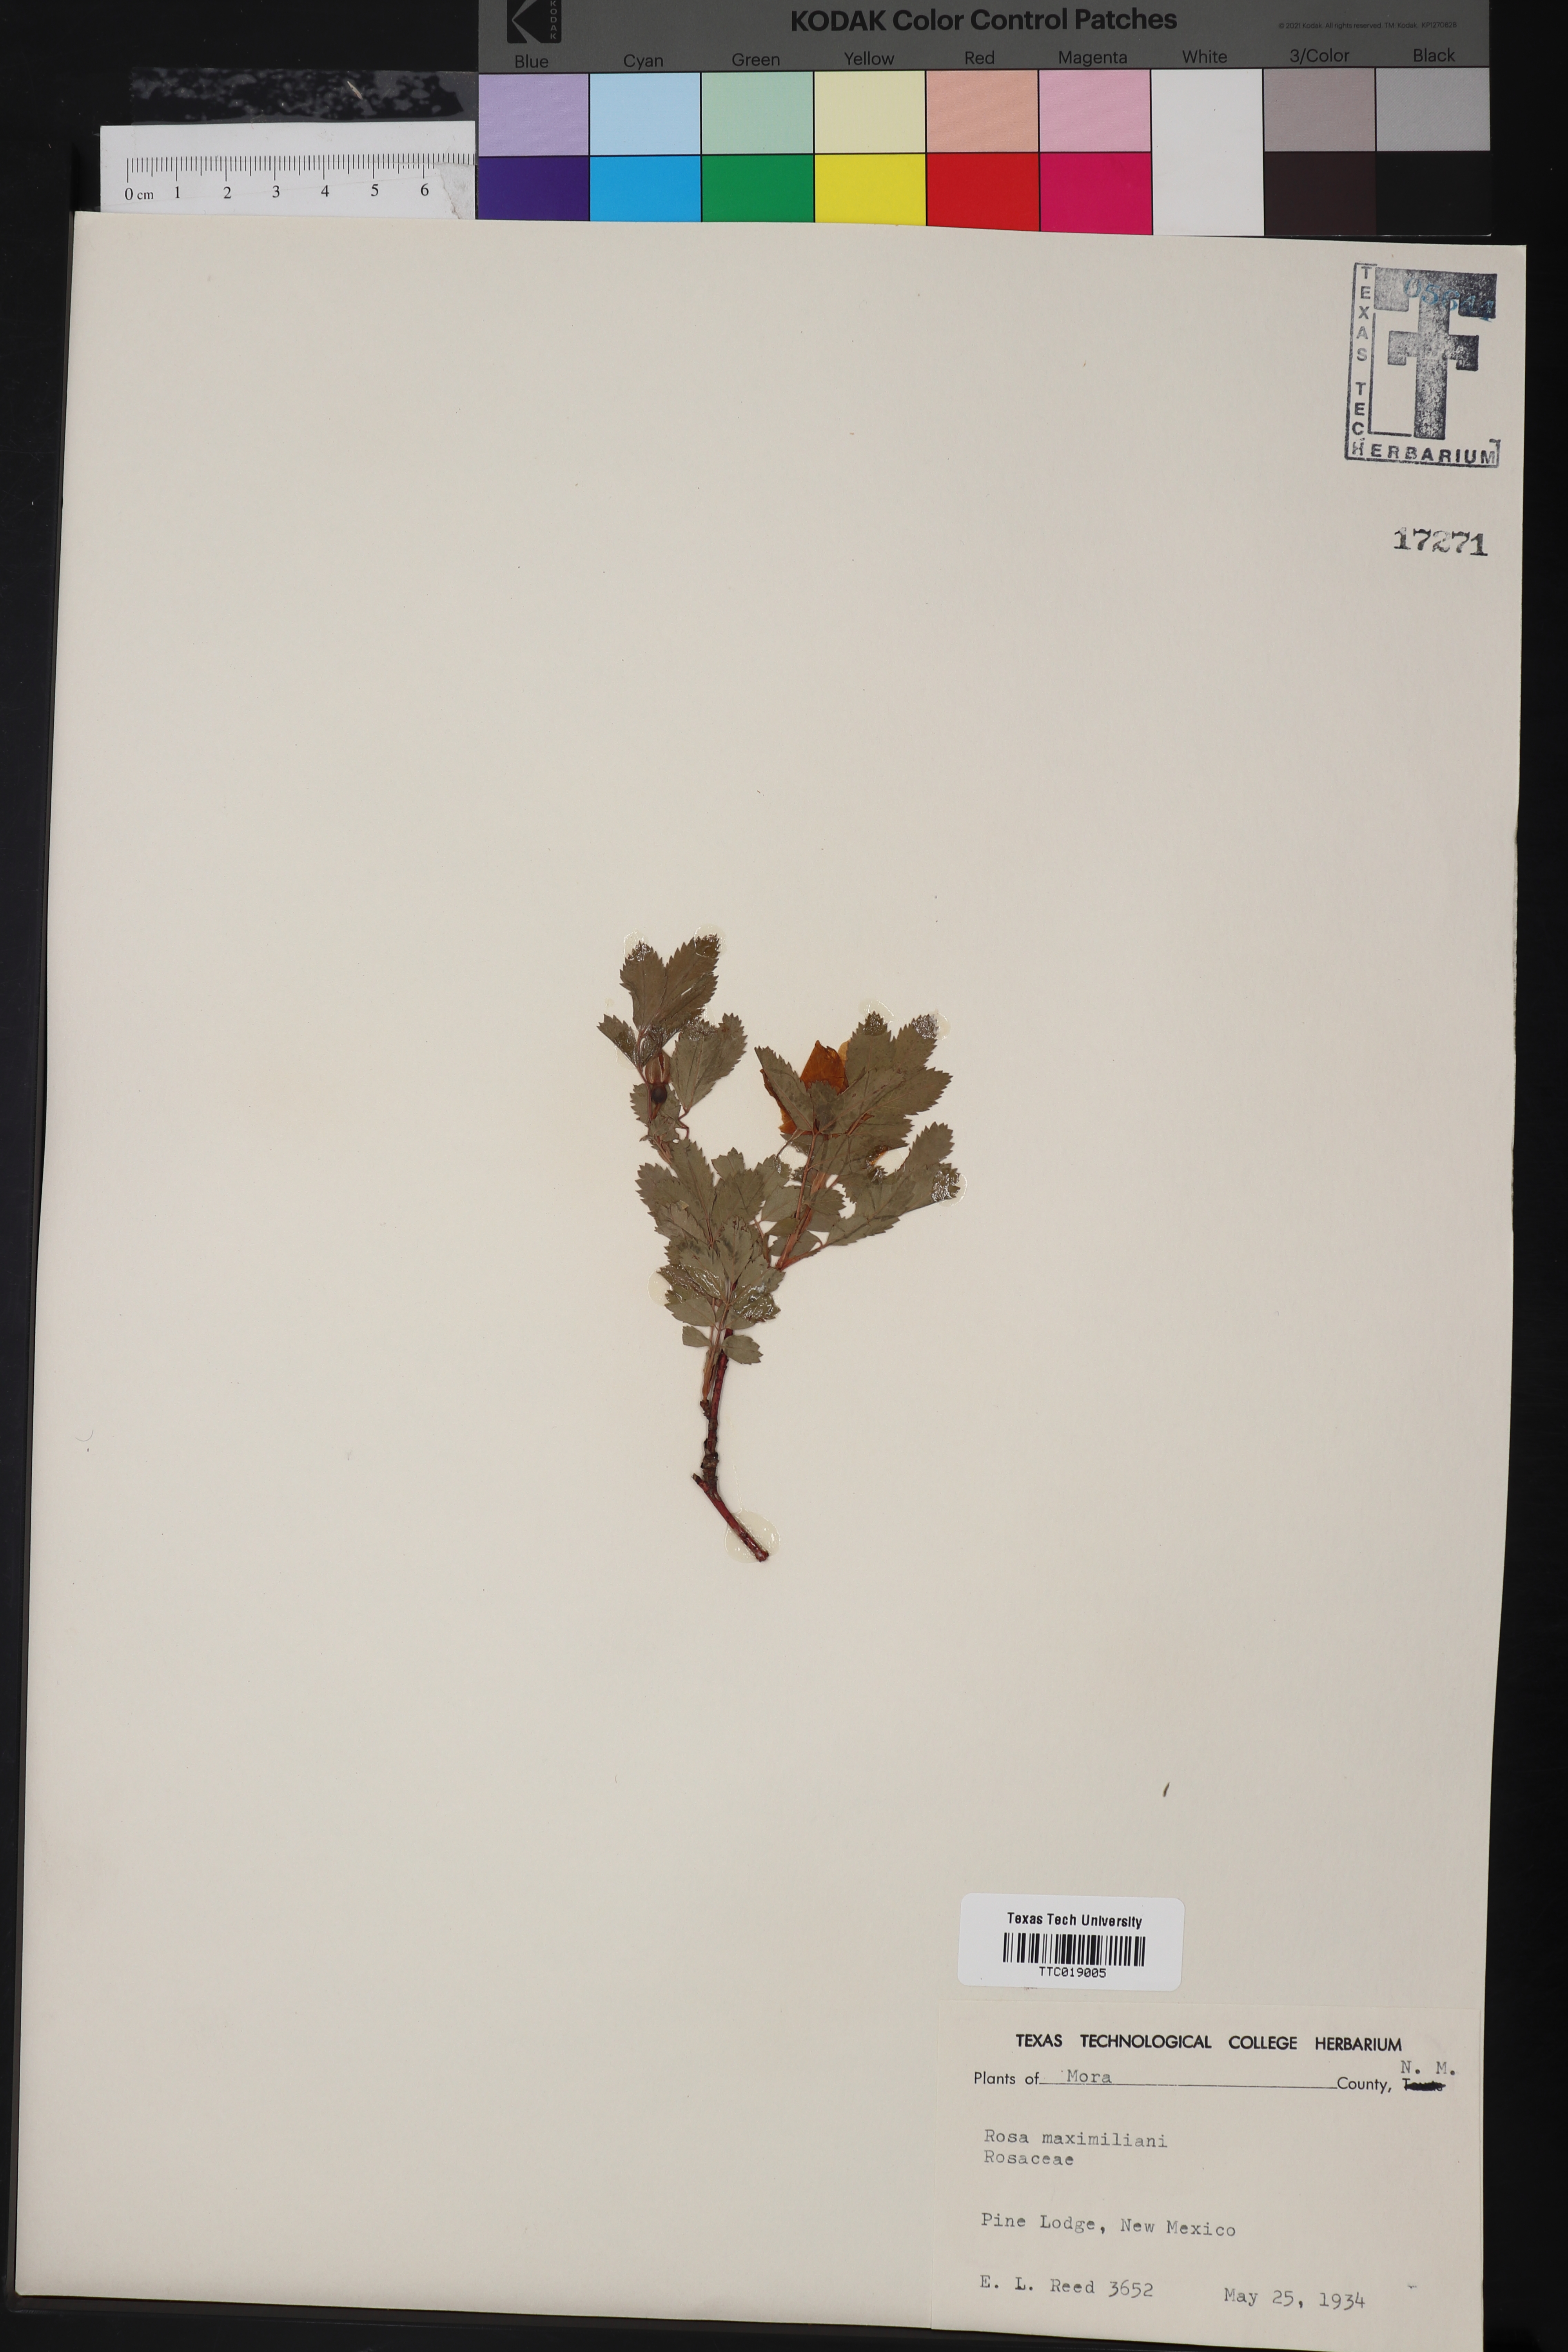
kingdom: Plantae
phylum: Tracheophyta
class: Magnoliopsida
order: Rosales
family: Rosaceae
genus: Rosa
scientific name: Rosa woodsii
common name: Woods's rose
